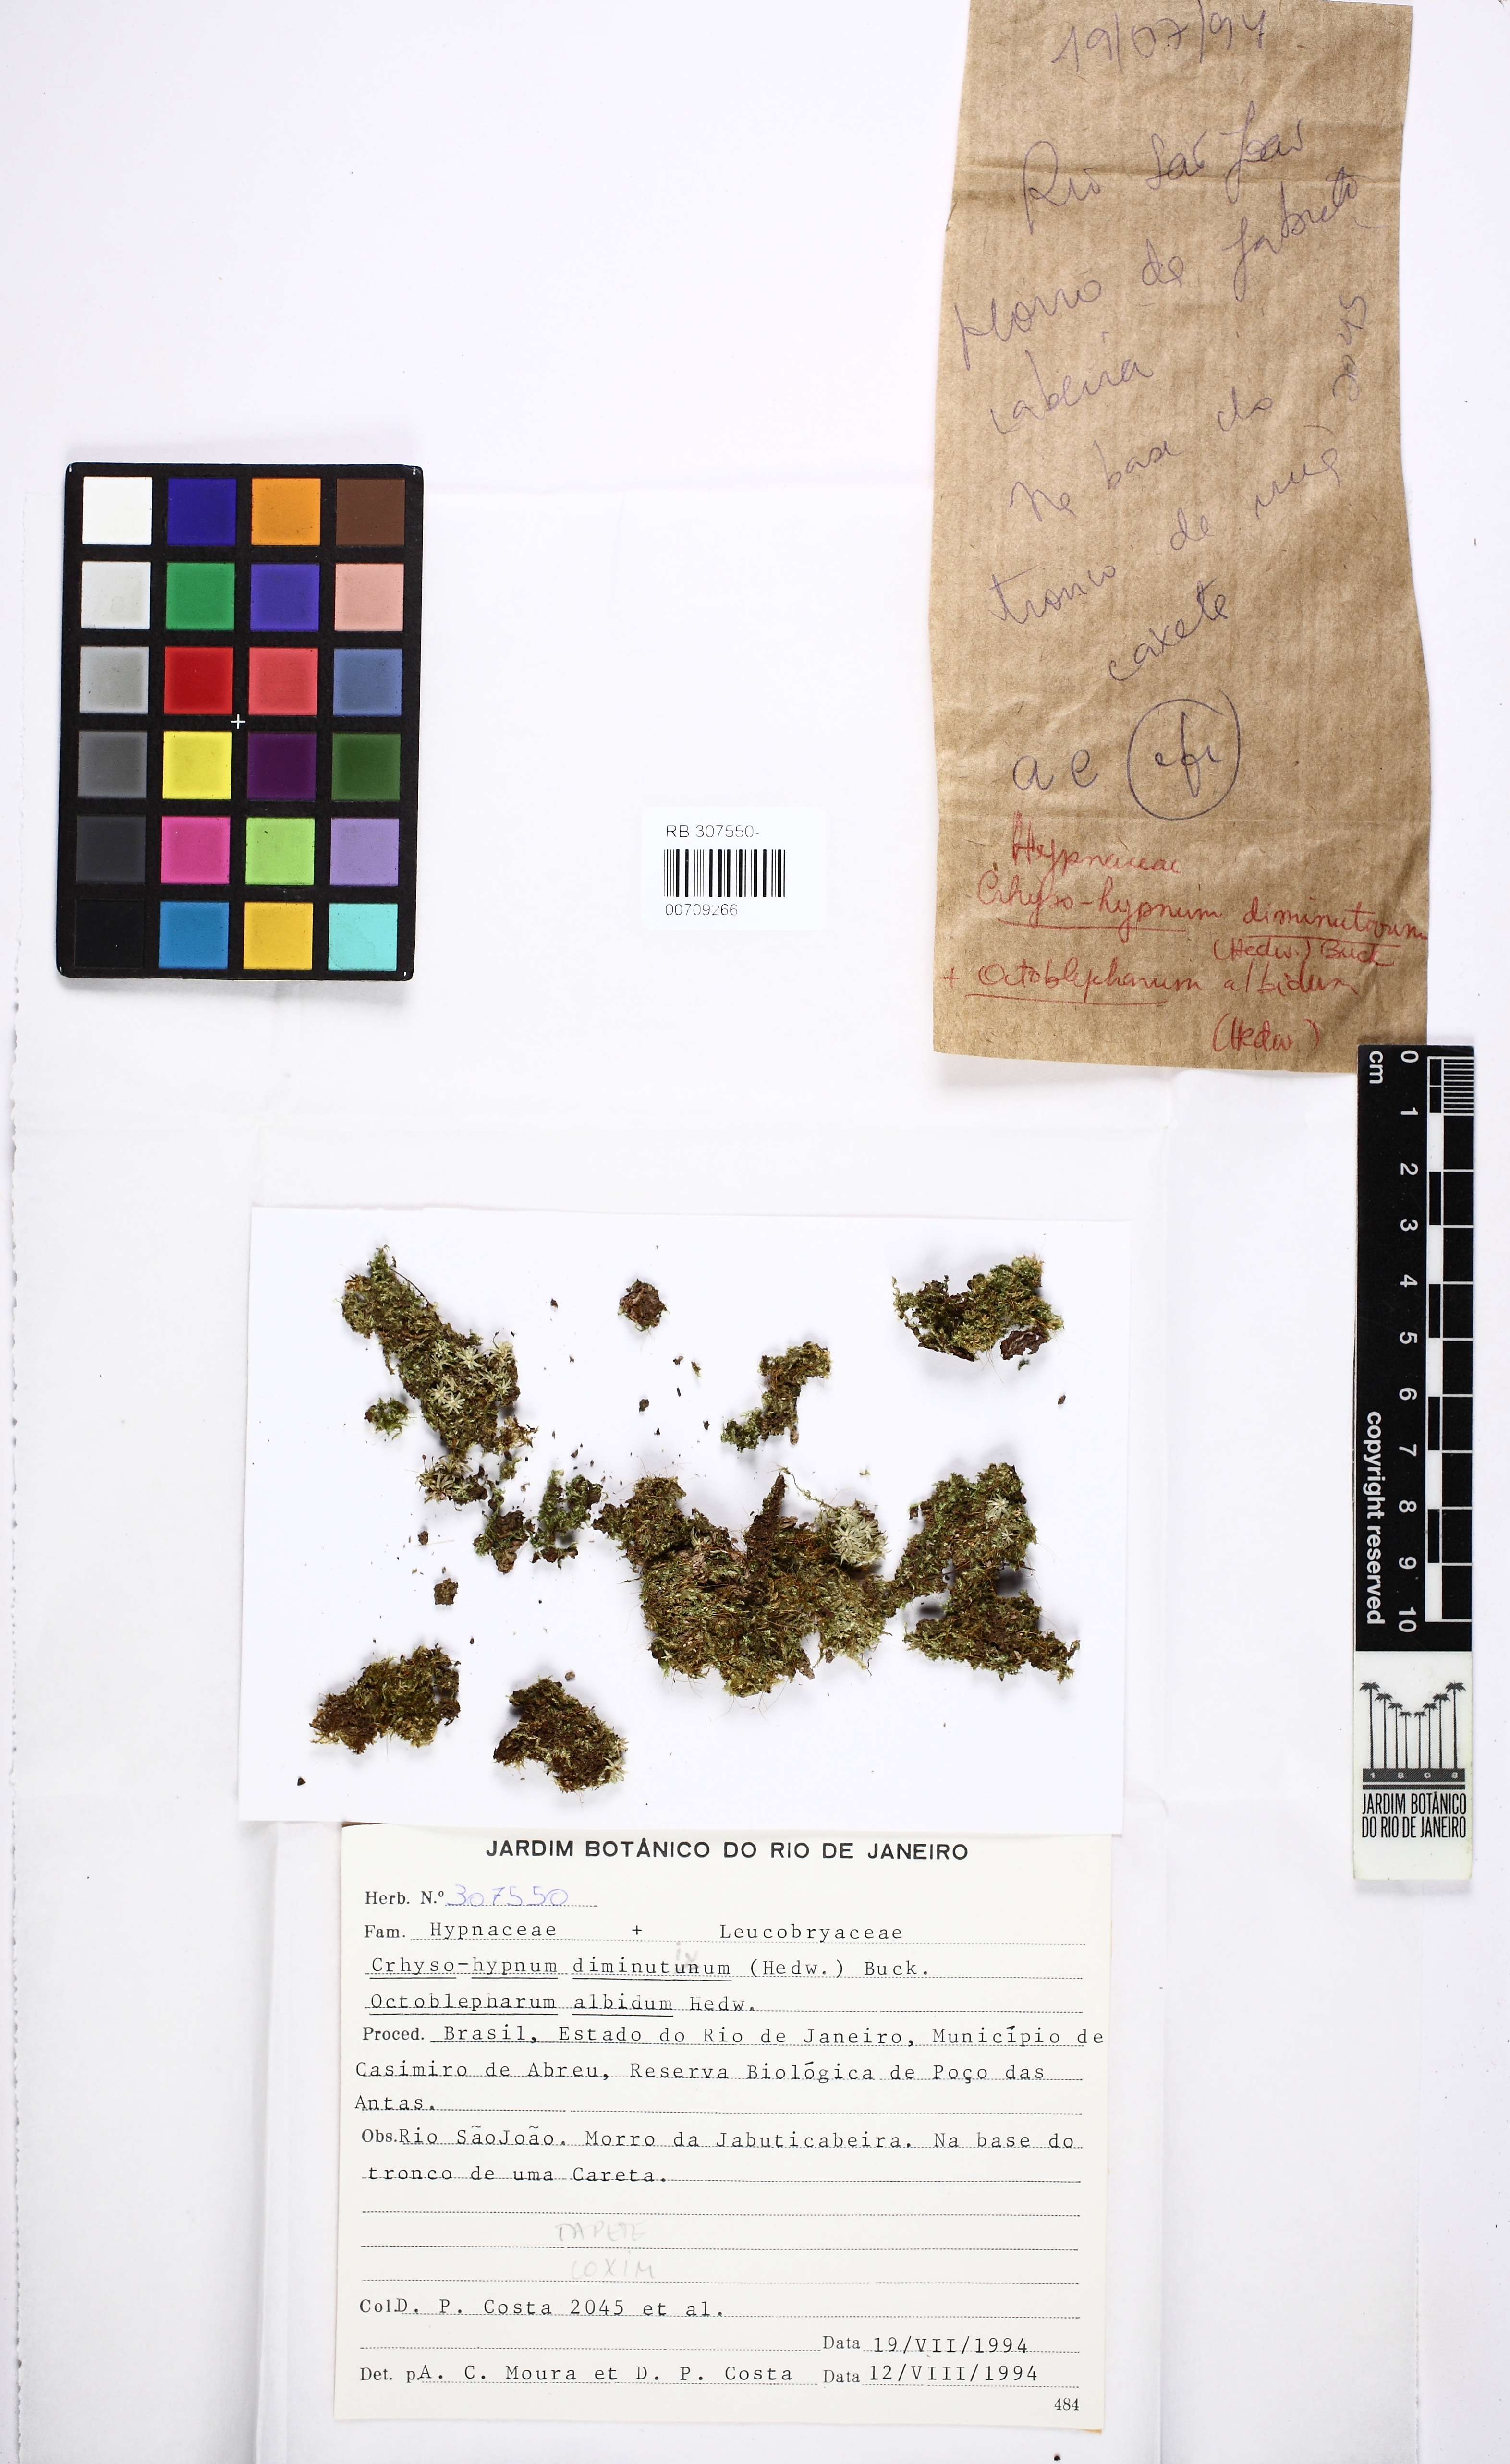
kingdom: Plantae
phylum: Bryophyta
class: Bryopsida
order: Hypnales
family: Hypnaceae
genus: Chryso-hypnum
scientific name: Chryso-hypnum diminutivum
